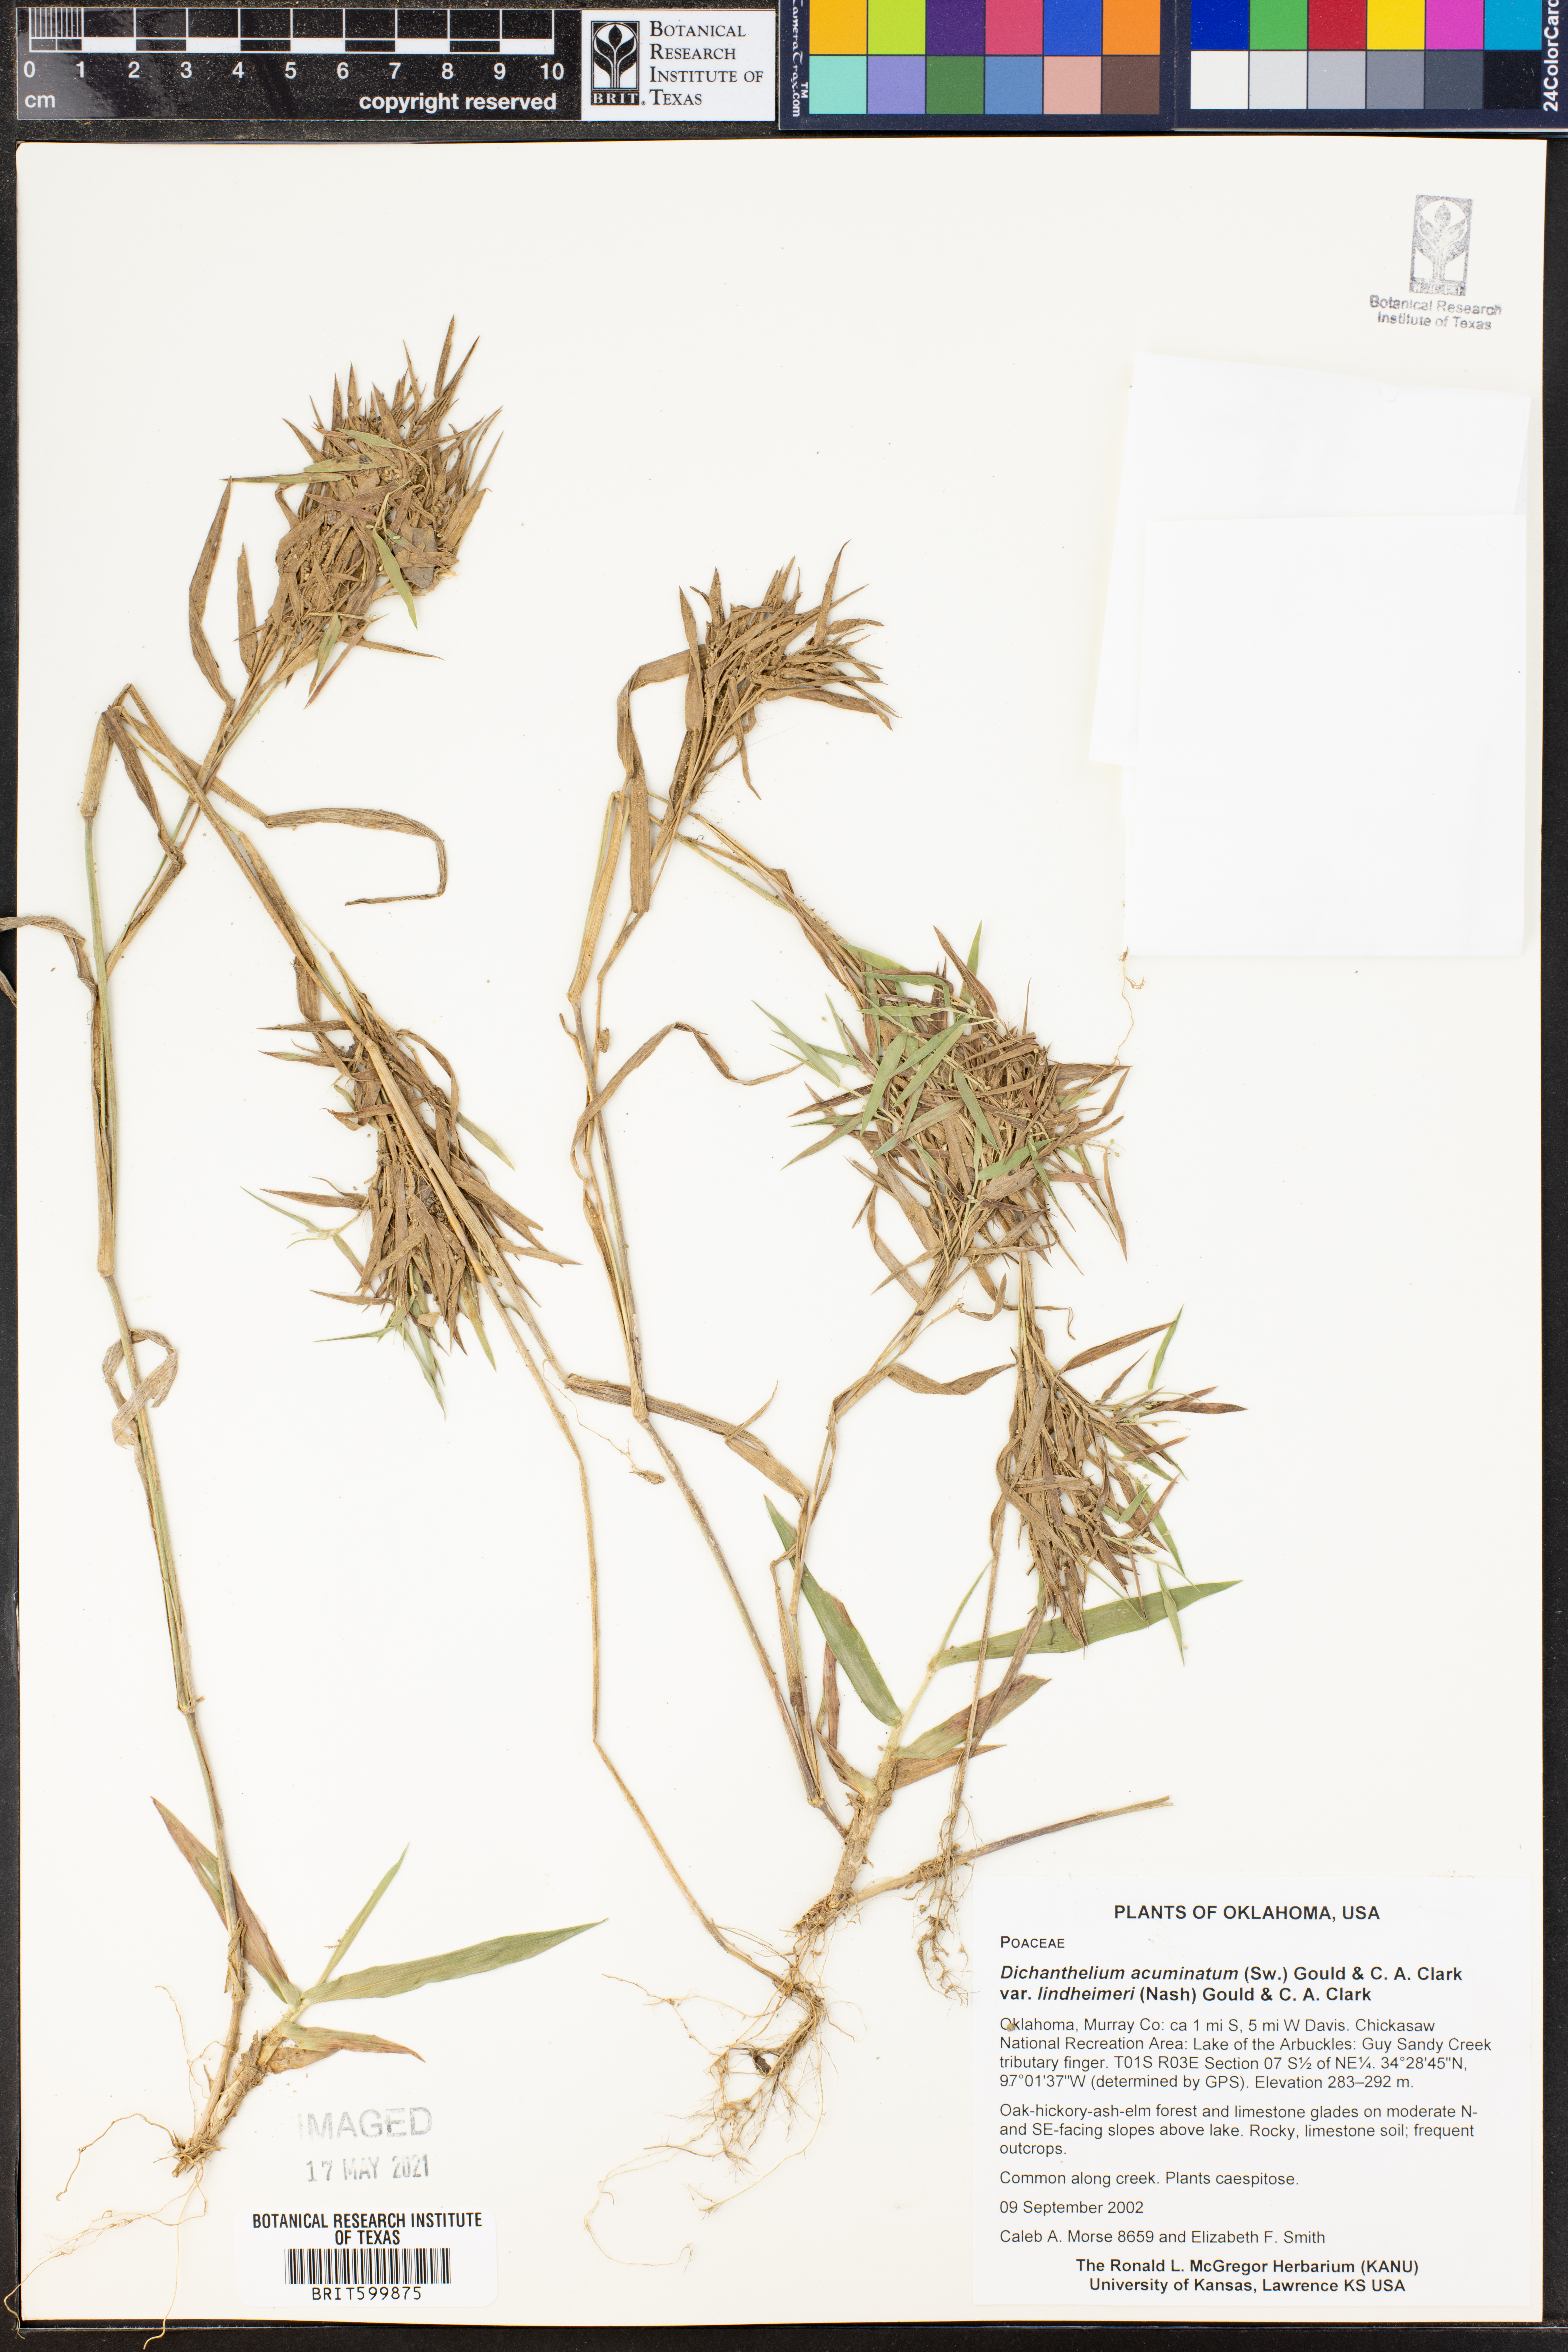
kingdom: Plantae
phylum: Tracheophyta
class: Liliopsida
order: Poales
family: Poaceae
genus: Dichanthelium
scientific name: Dichanthelium lindheimeri
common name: Lindheimer's panicgrass
